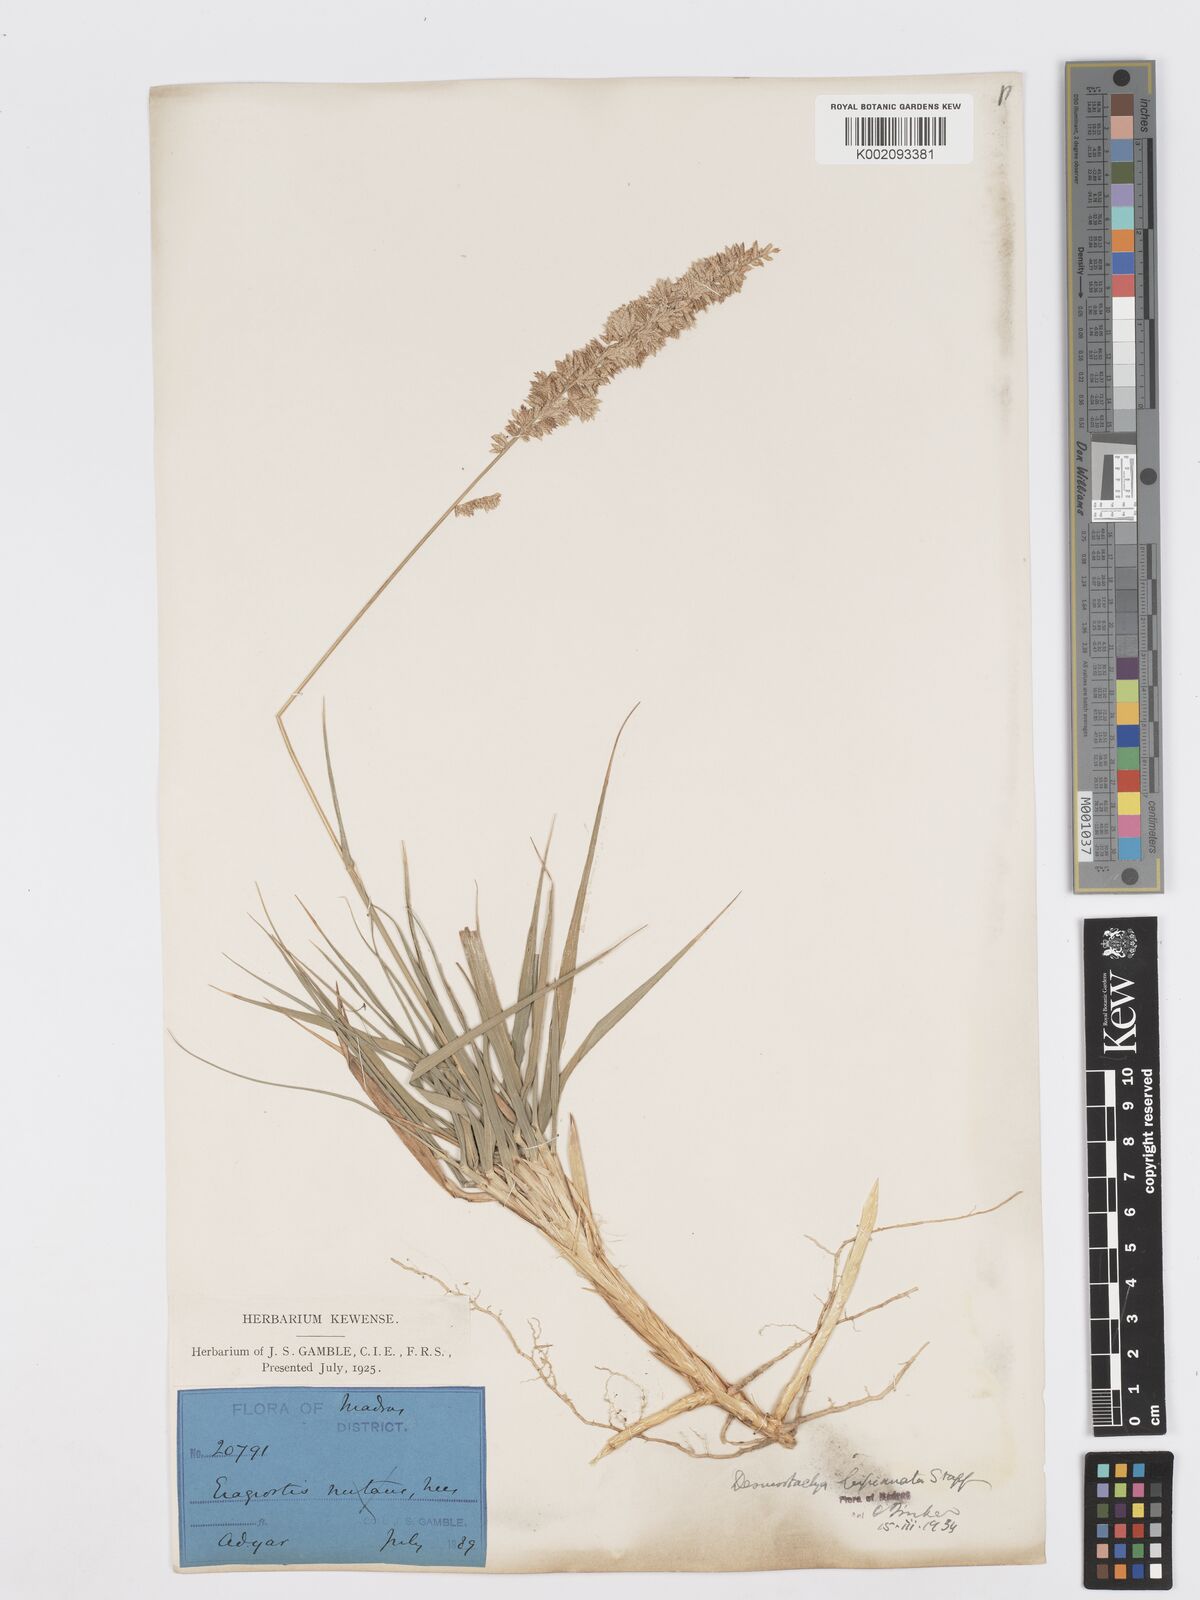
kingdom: Plantae
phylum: Tracheophyta
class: Liliopsida
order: Poales
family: Poaceae
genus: Desmostachya
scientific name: Desmostachya bipinnata
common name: Crowfoot grass
